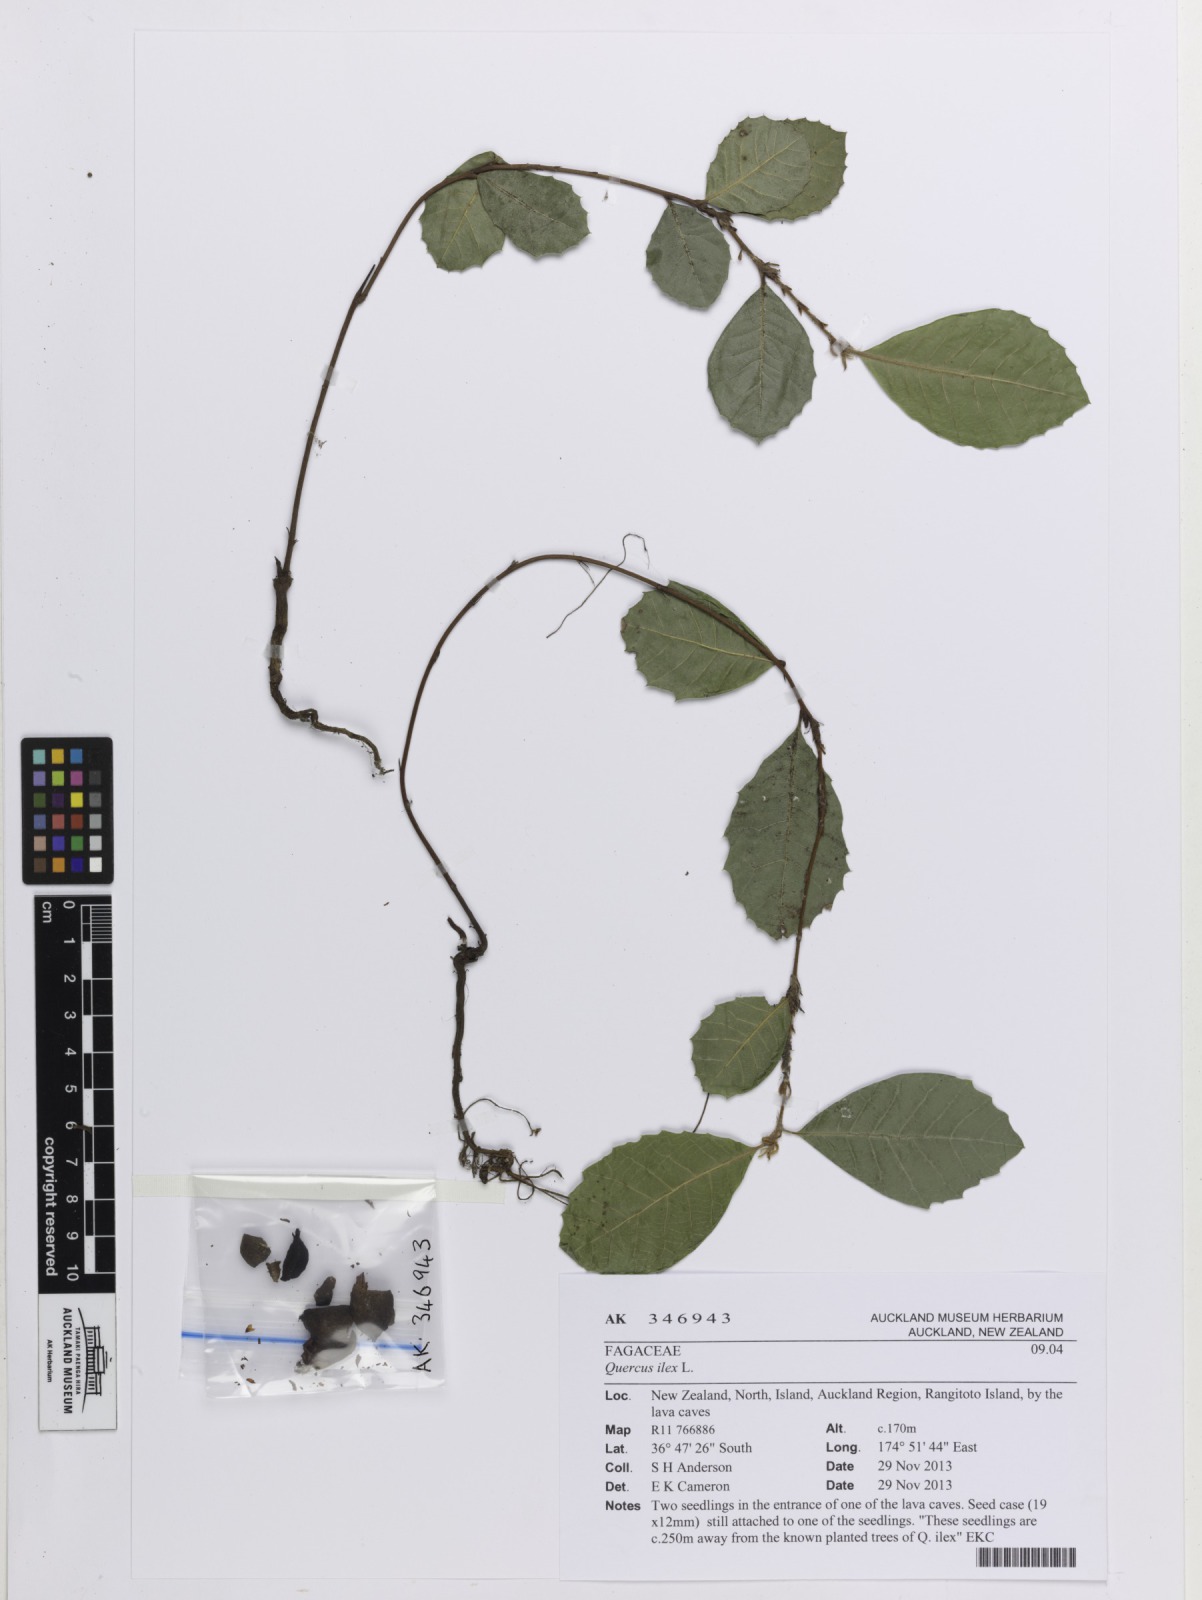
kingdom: Plantae
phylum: Tracheophyta
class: Magnoliopsida
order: Fagales
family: Fagaceae
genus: Quercus
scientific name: Quercus ilex
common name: Evergreen oak
